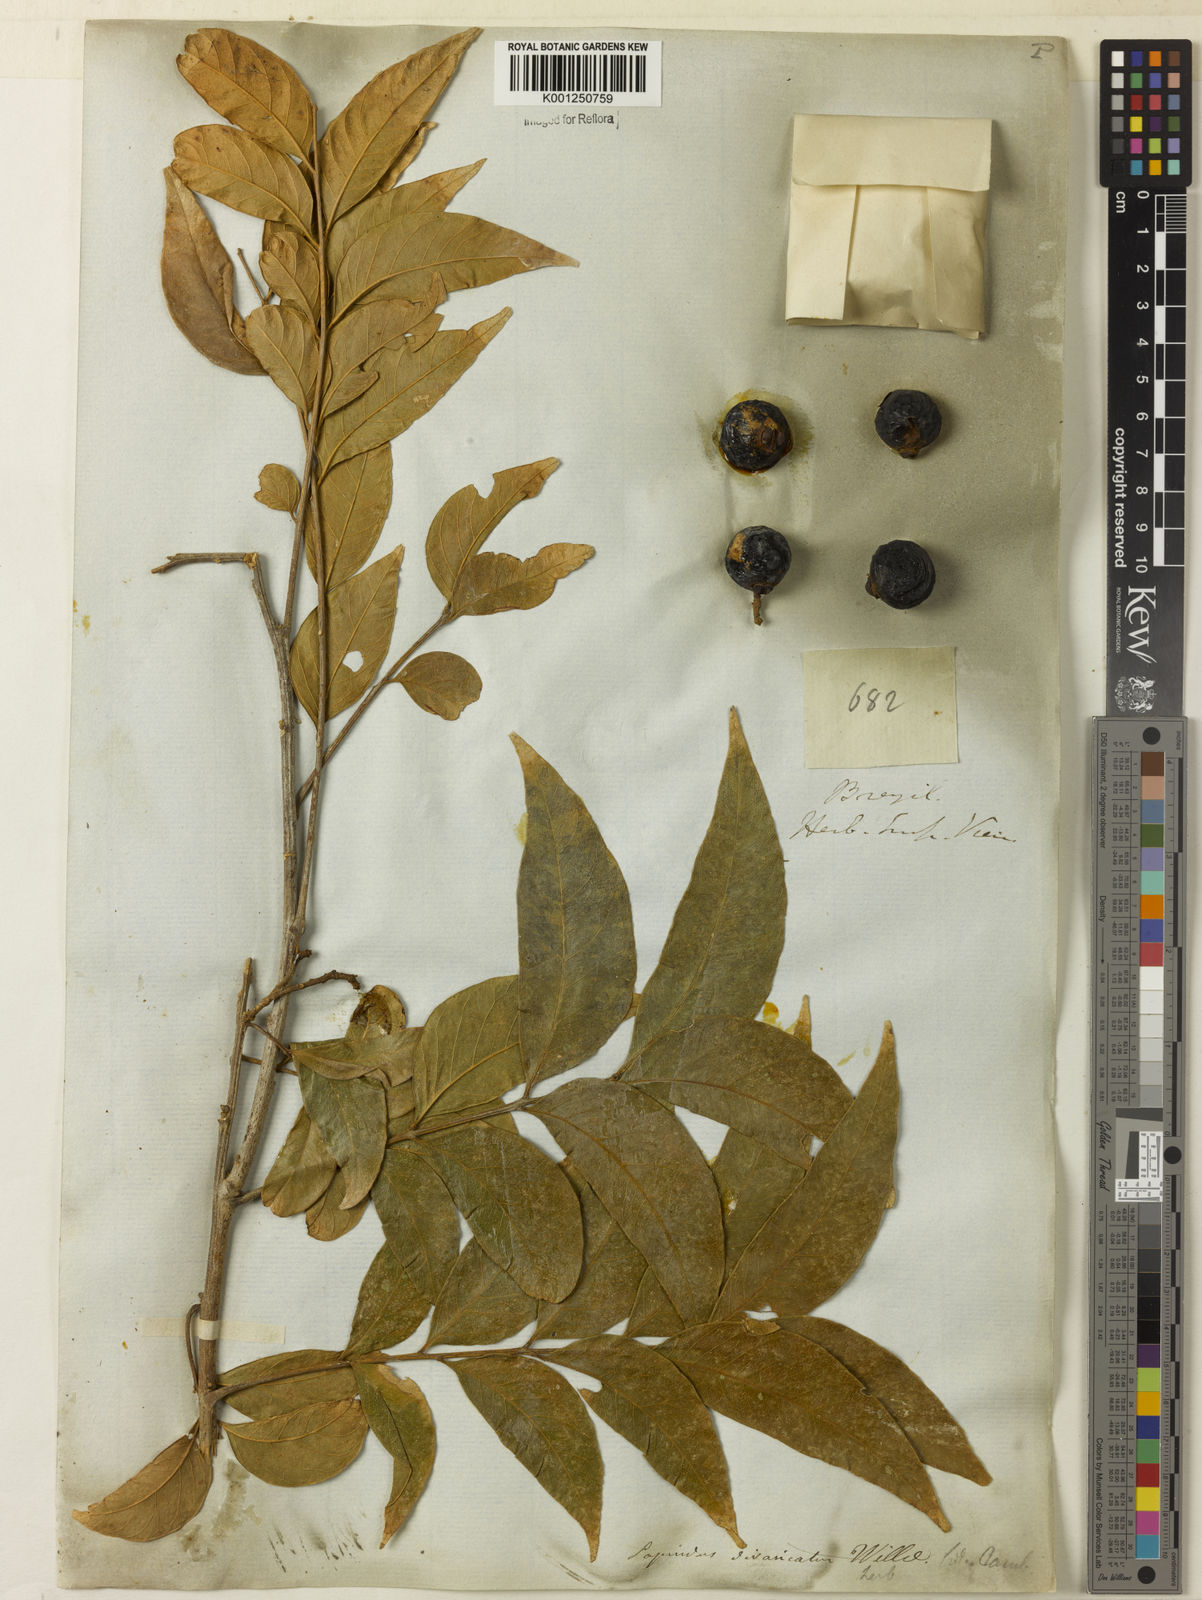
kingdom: Plantae
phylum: Tracheophyta
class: Magnoliopsida
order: Sapindales
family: Sapindaceae
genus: Sapindus
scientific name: Sapindus
